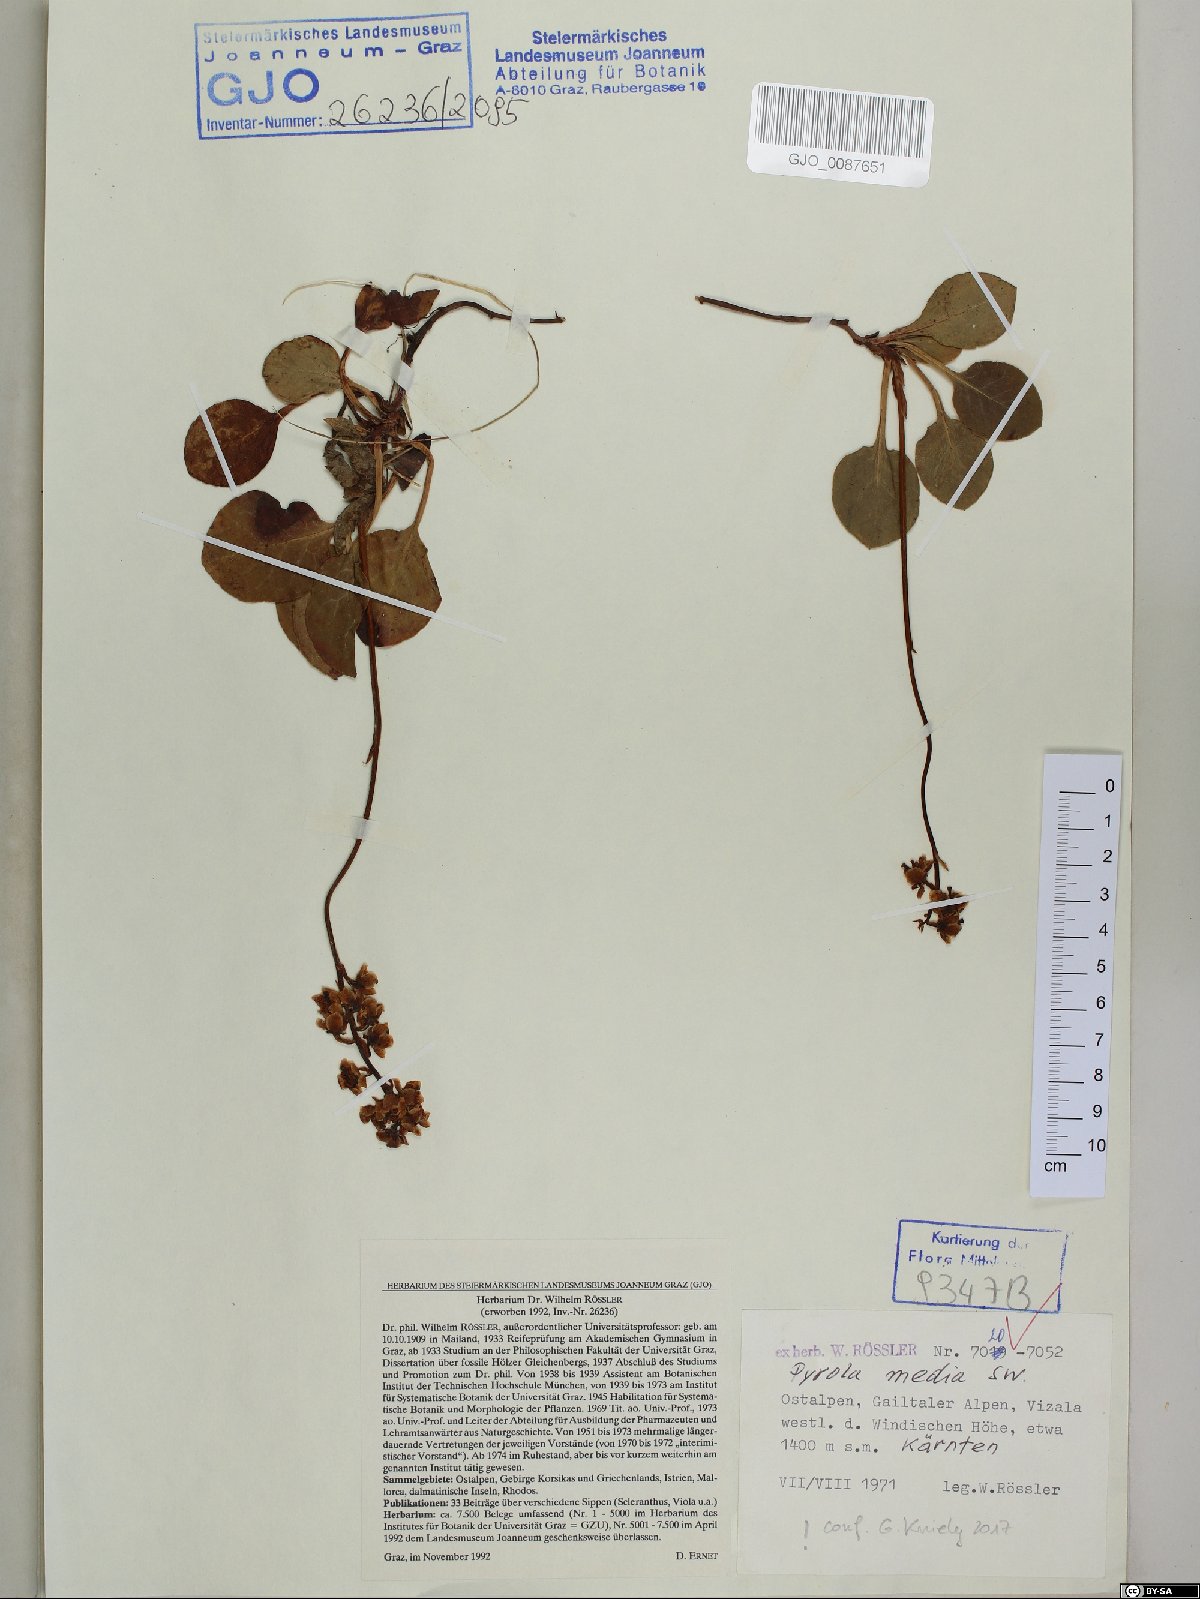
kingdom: Plantae
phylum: Tracheophyta
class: Magnoliopsida
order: Ericales
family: Ericaceae
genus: Pyrola
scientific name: Pyrola media
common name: Intermediate wintergreen
